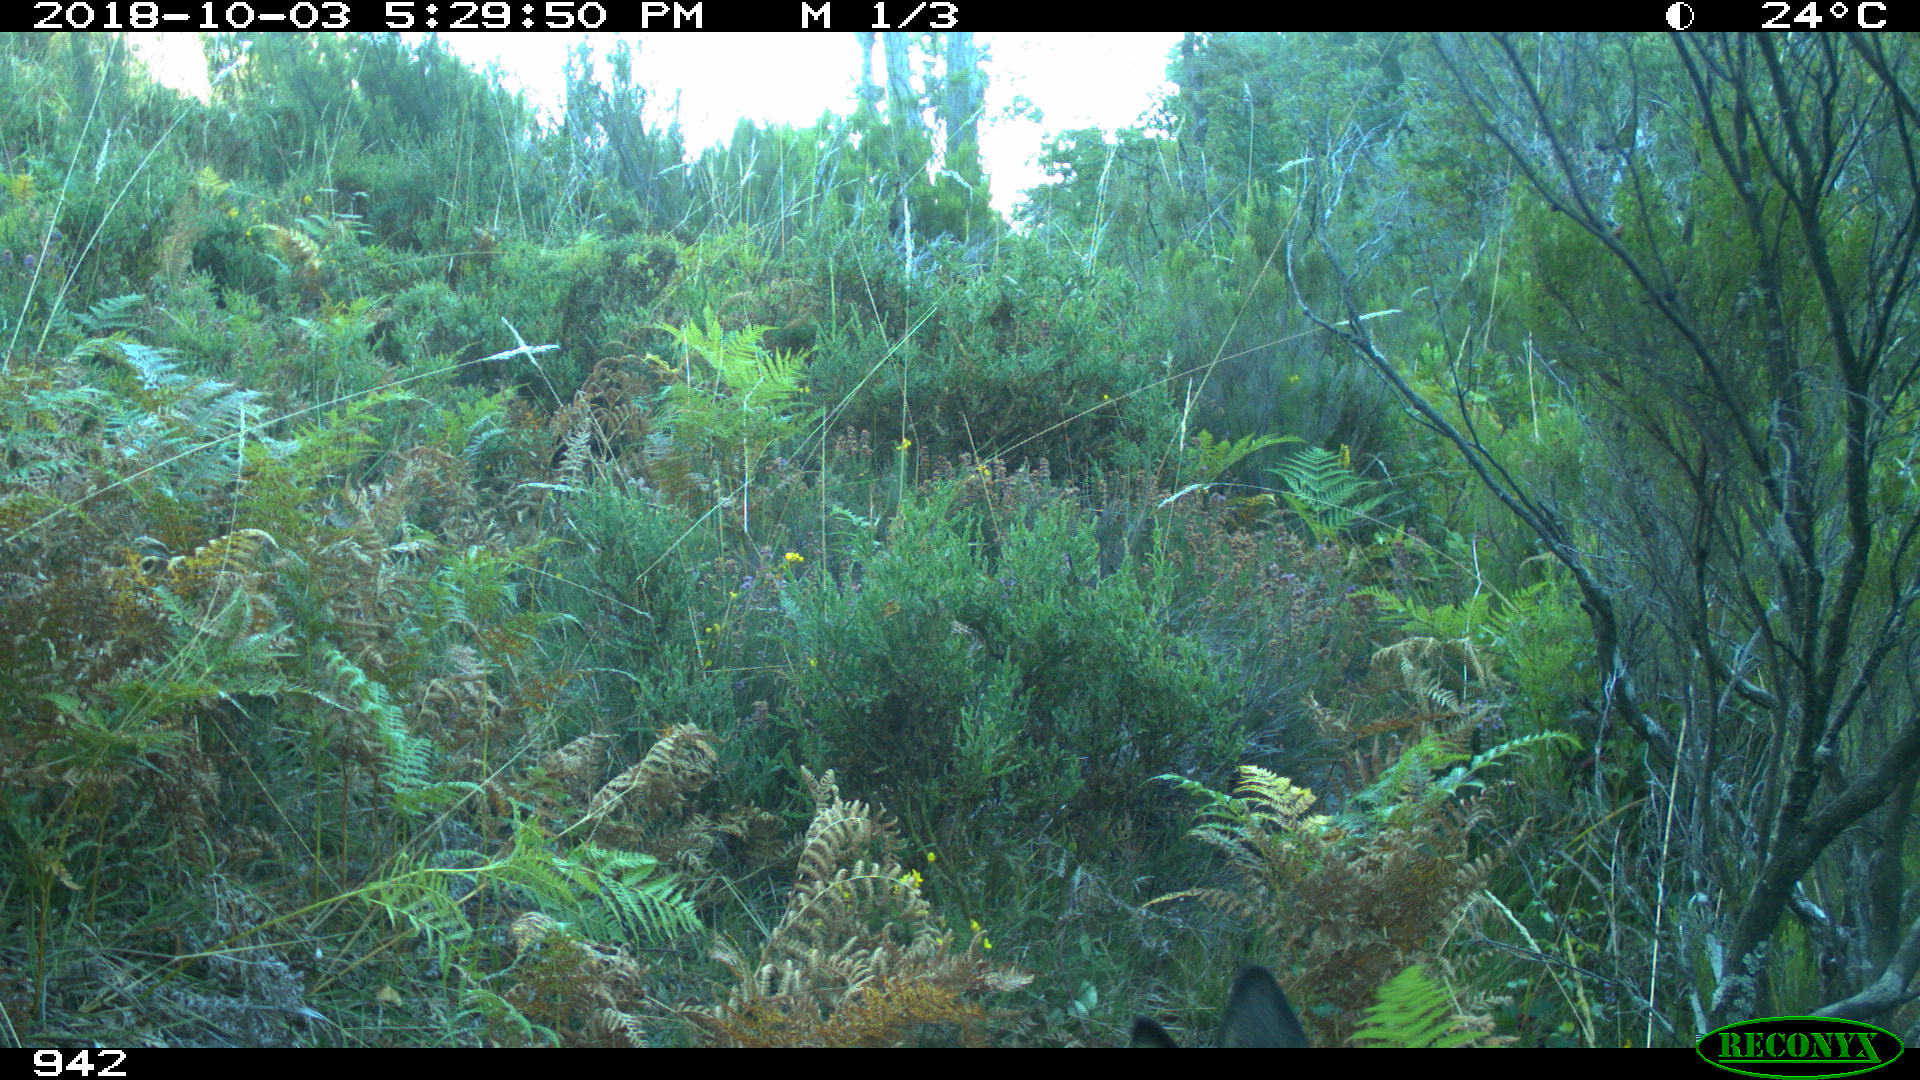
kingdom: Animalia
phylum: Chordata
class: Mammalia
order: Artiodactyla
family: Cervidae
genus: Capreolus
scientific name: Capreolus capreolus
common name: Western roe deer
